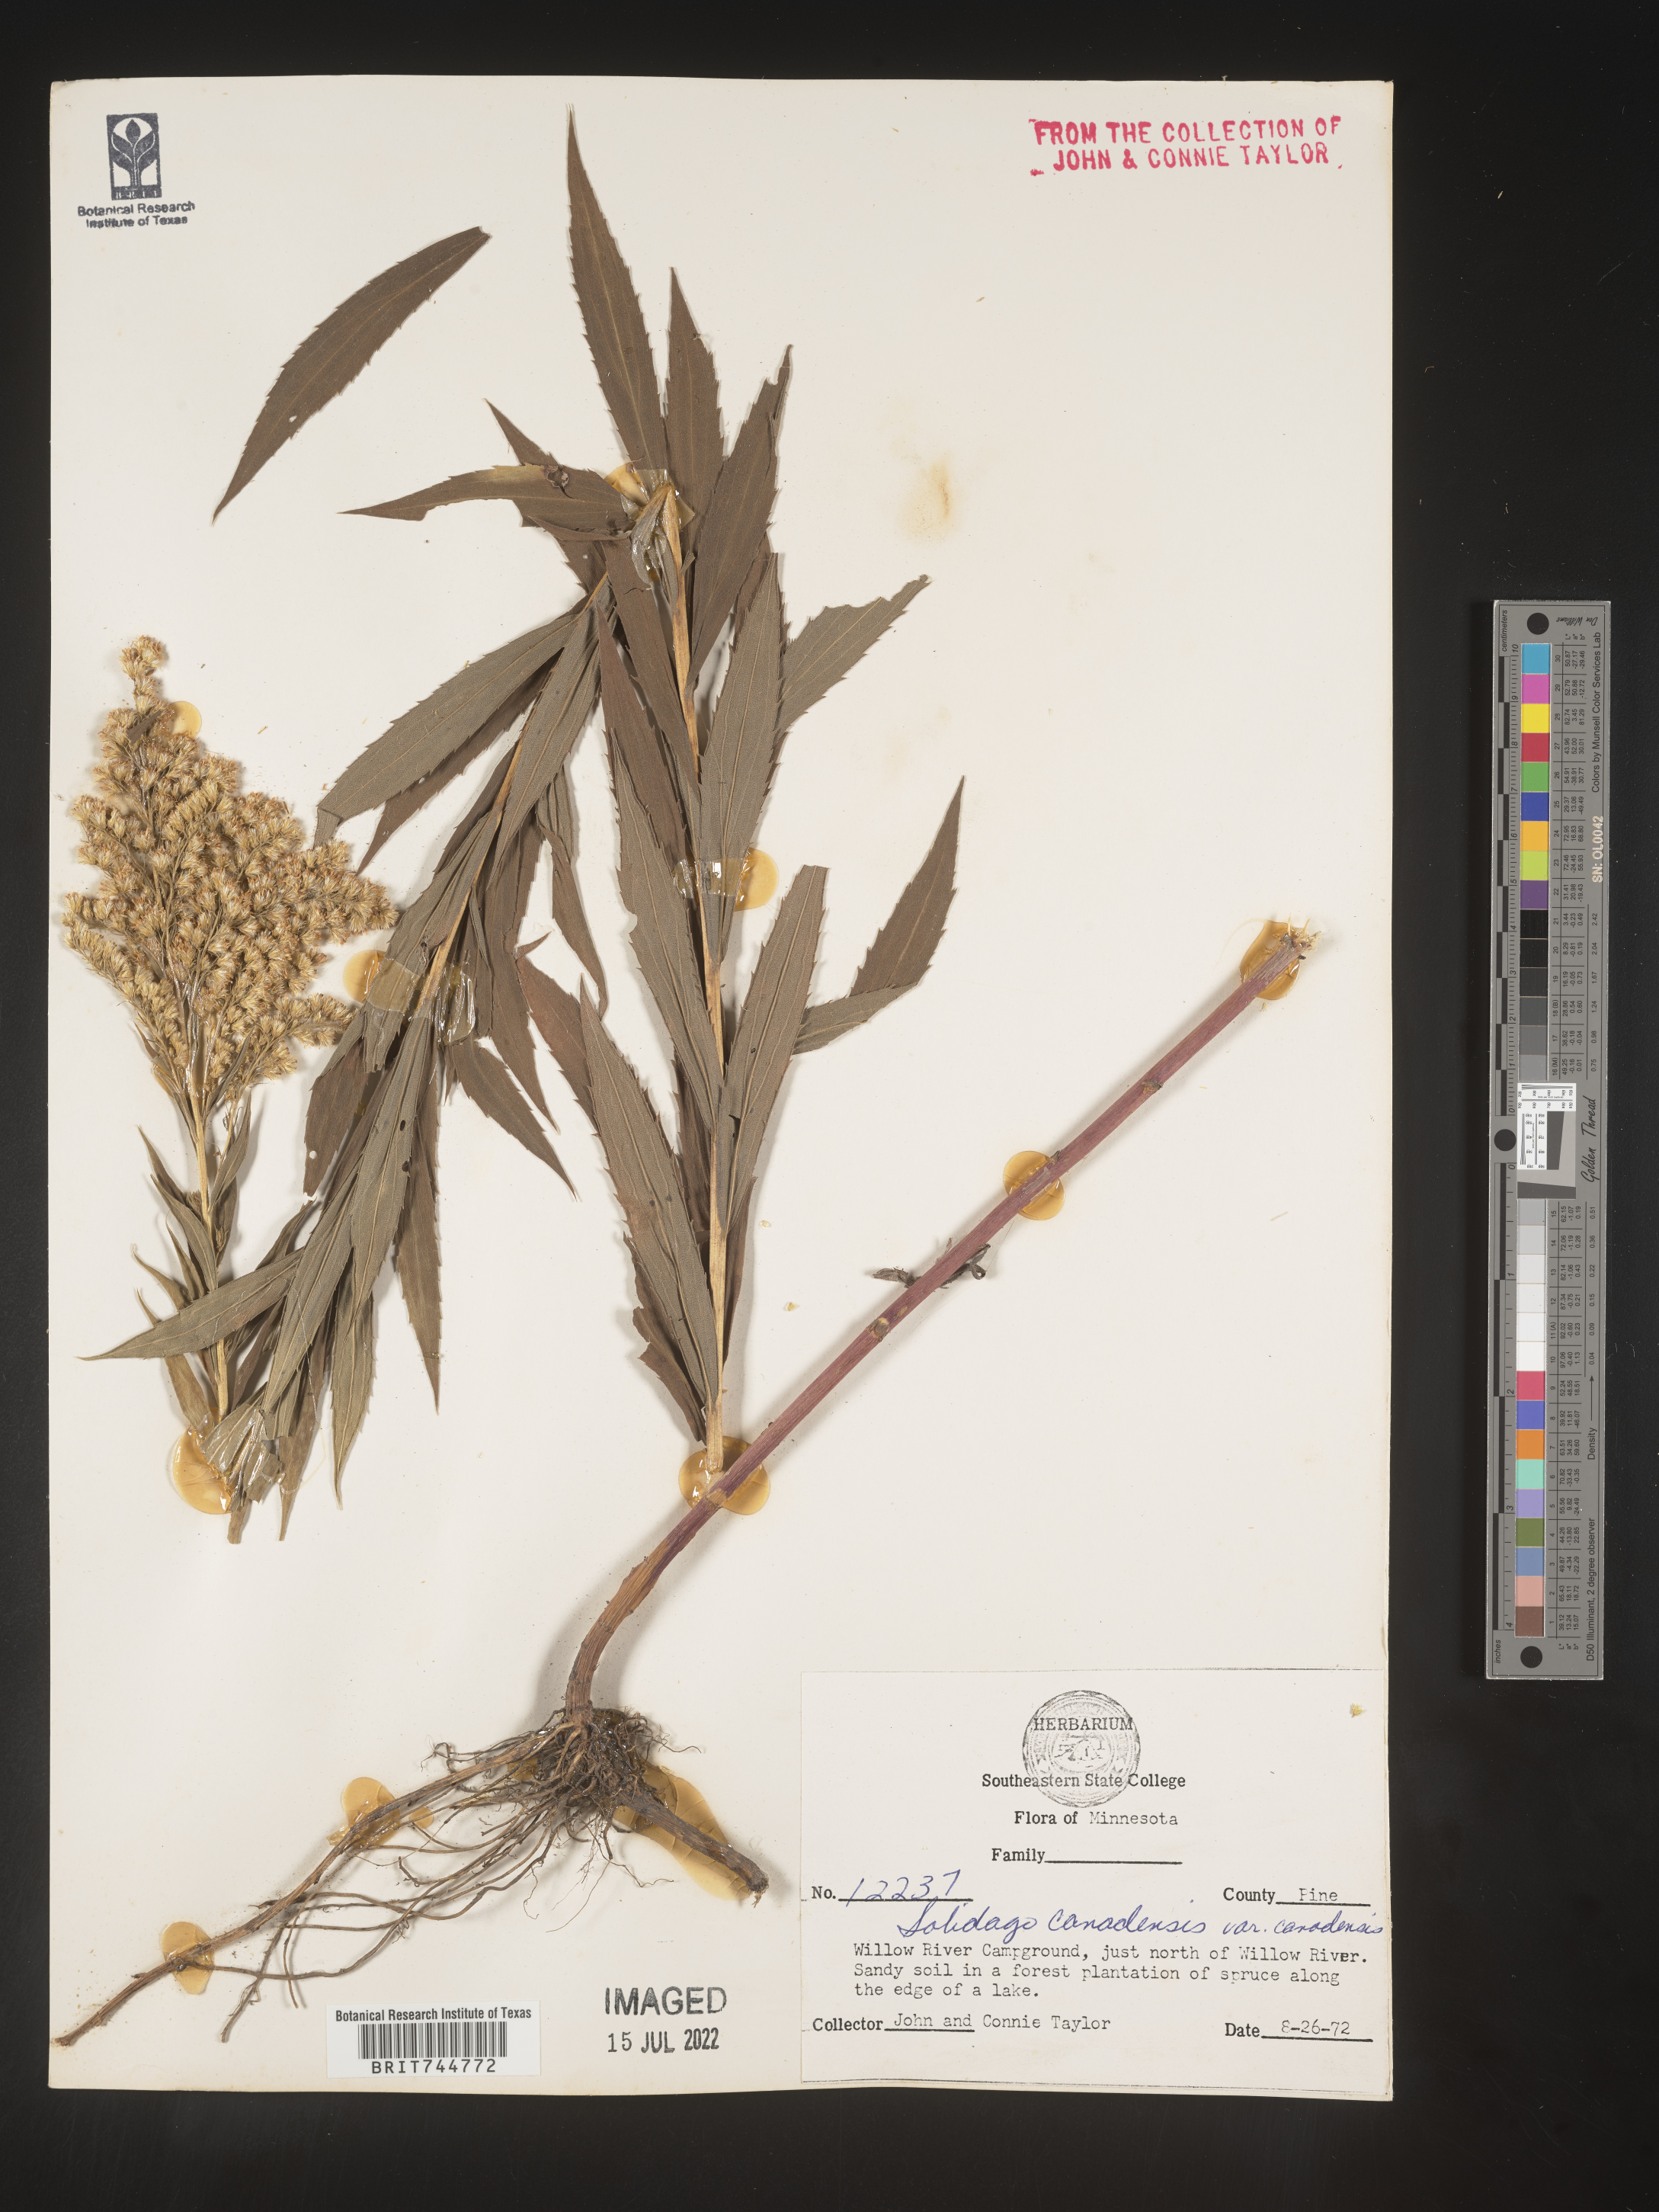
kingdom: Plantae
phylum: Tracheophyta
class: Magnoliopsida
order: Asterales
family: Asteraceae
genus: Solidago
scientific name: Solidago canadensis
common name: Canada goldenrod
